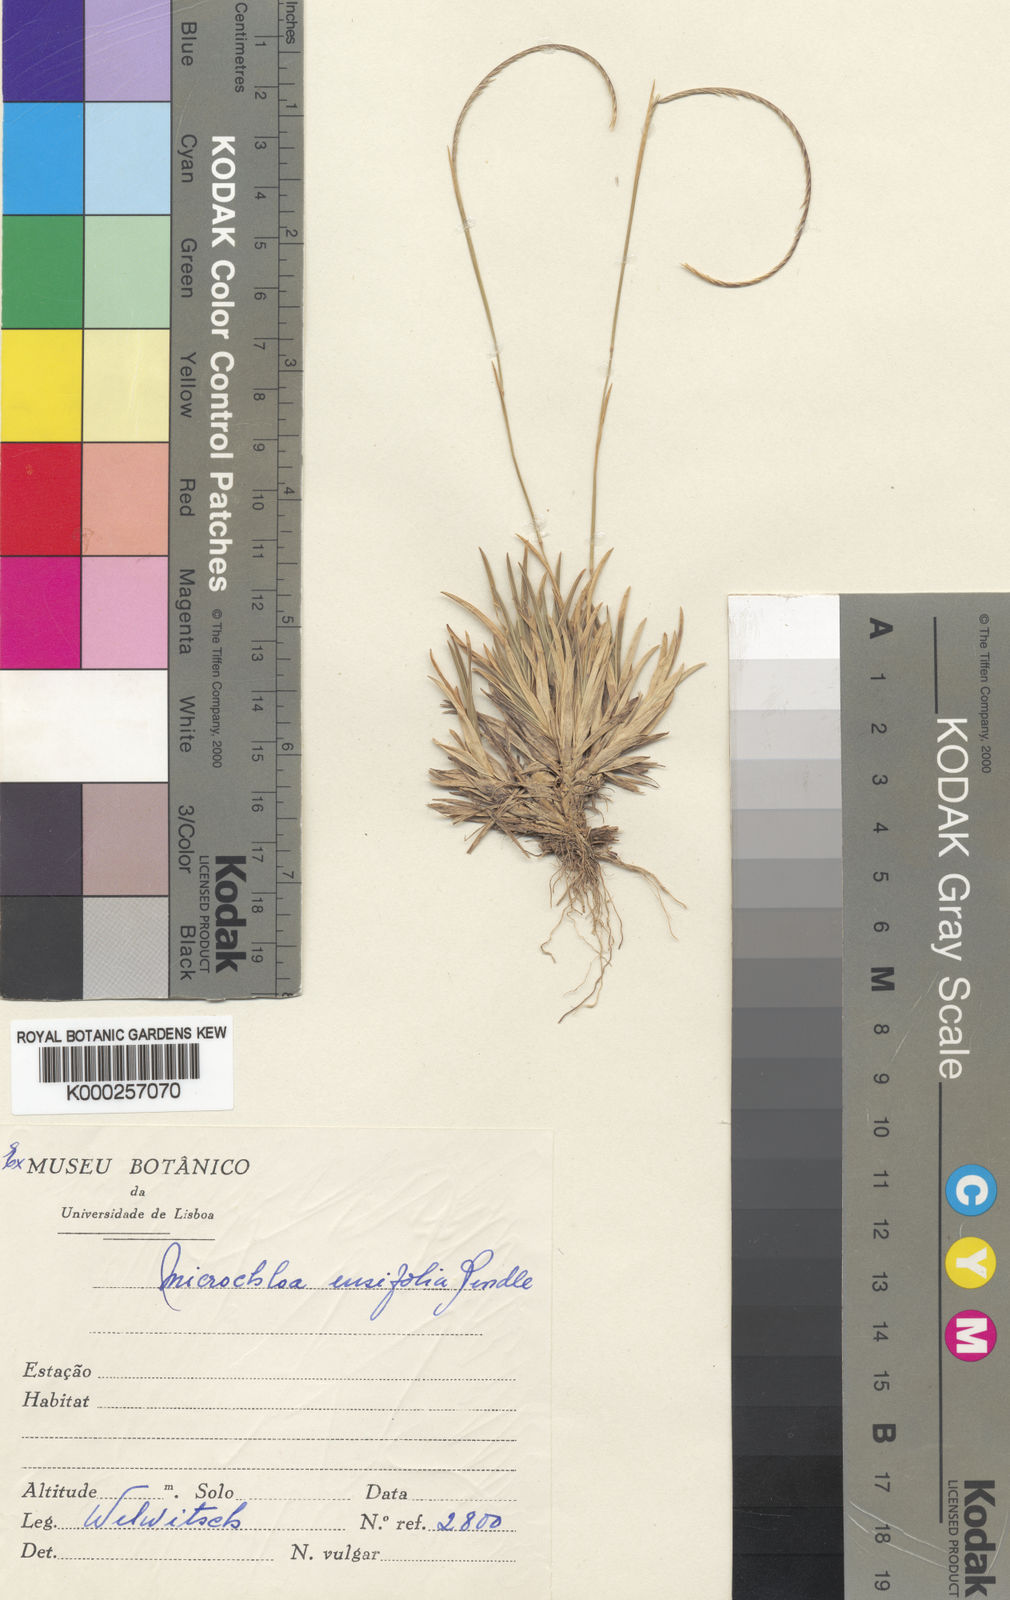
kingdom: Plantae
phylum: Tracheophyta
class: Liliopsida
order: Poales
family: Poaceae
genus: Microchloa
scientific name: Microchloa ensifolia
